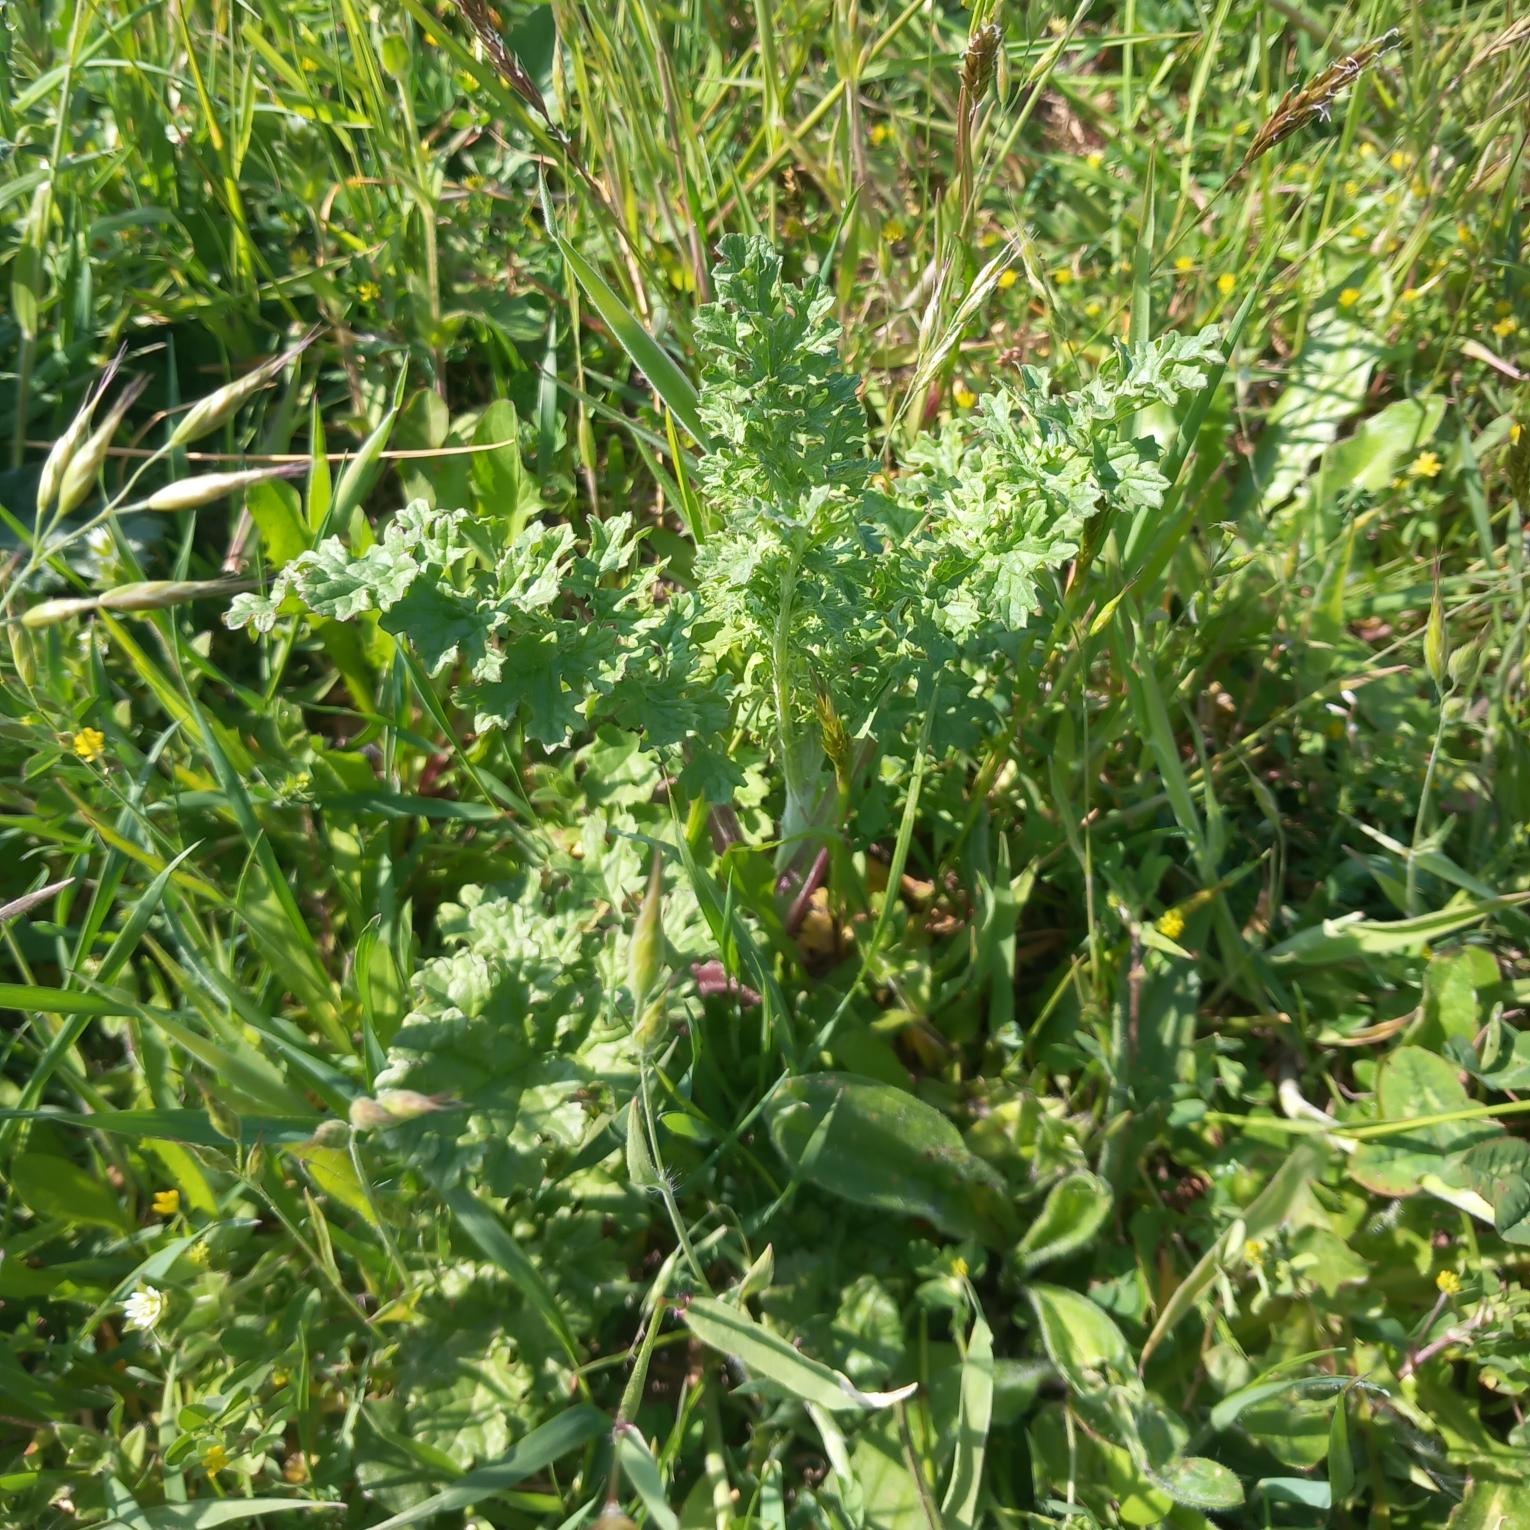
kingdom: Plantae
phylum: Tracheophyta
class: Magnoliopsida
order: Asterales
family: Asteraceae
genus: Jacobaea
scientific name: Jacobaea vulgaris
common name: Eng-brandbæger
